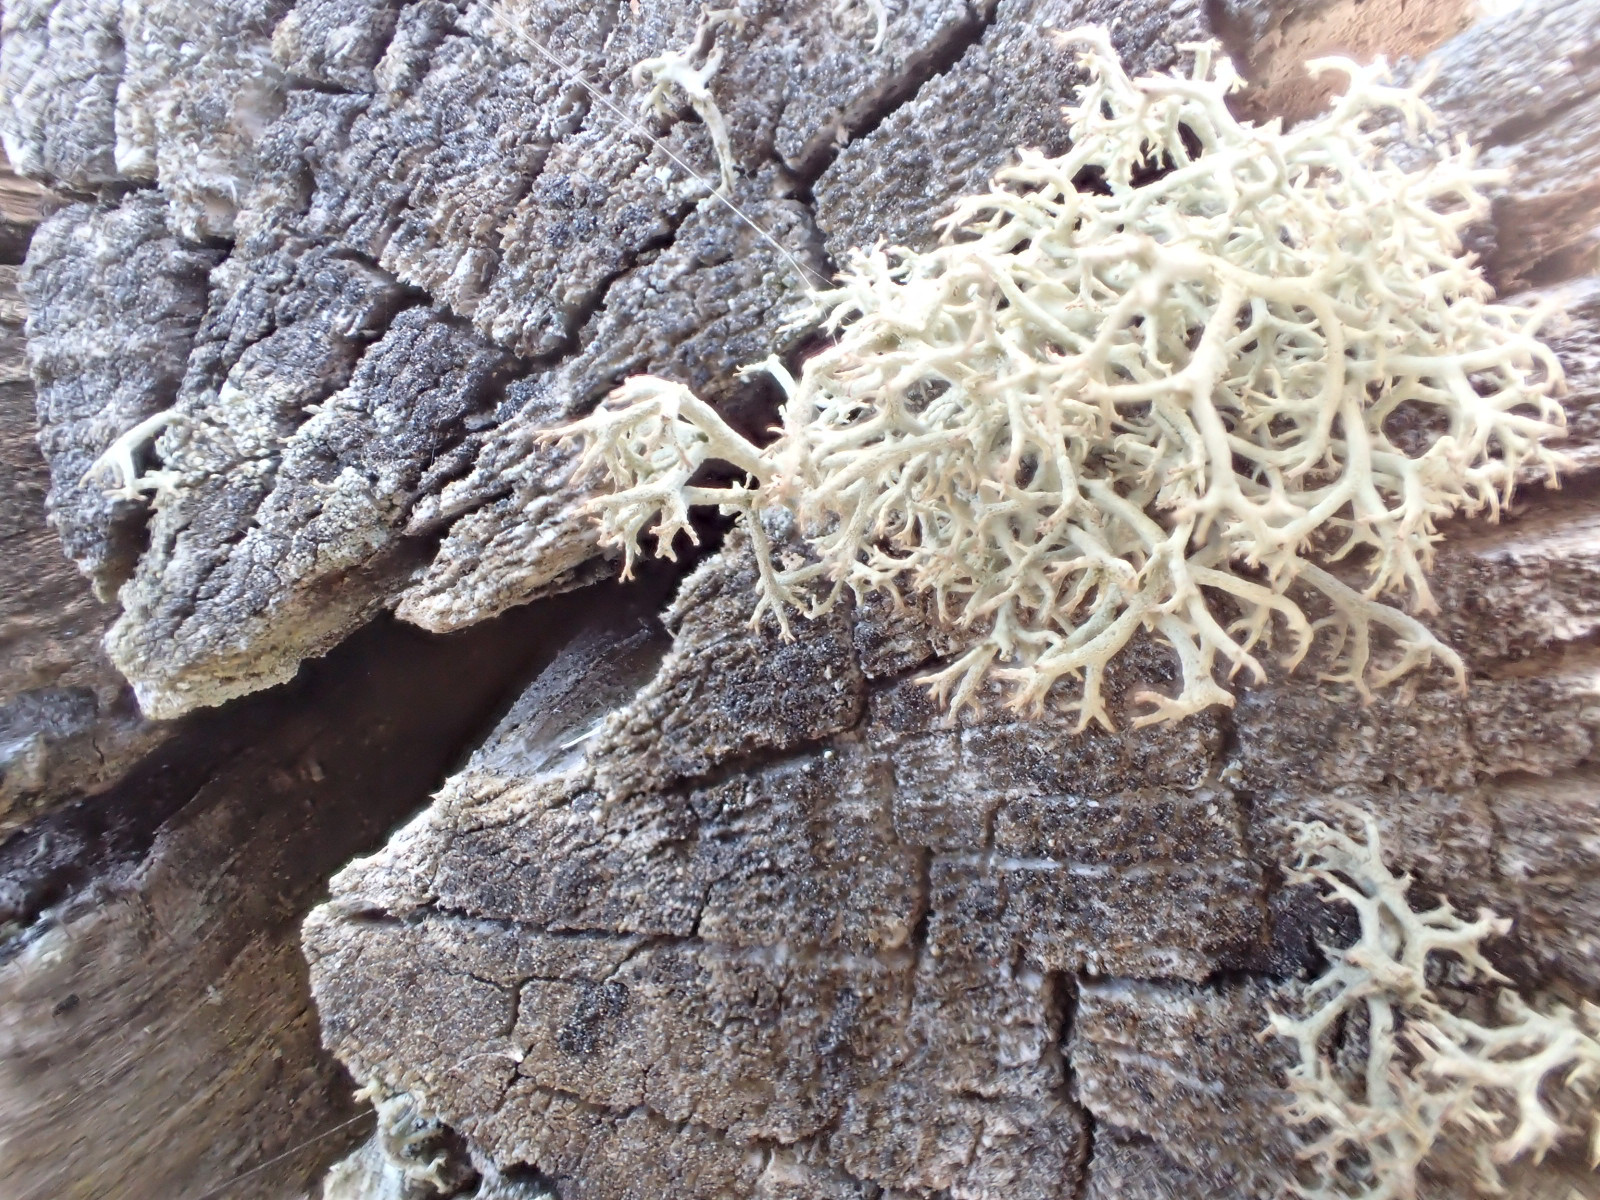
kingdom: Fungi
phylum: Ascomycota
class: Lecanoromycetes
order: Lecanorales
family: Cladoniaceae
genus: Cladonia
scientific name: Cladonia portentosa
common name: hede-rensdyrlav
